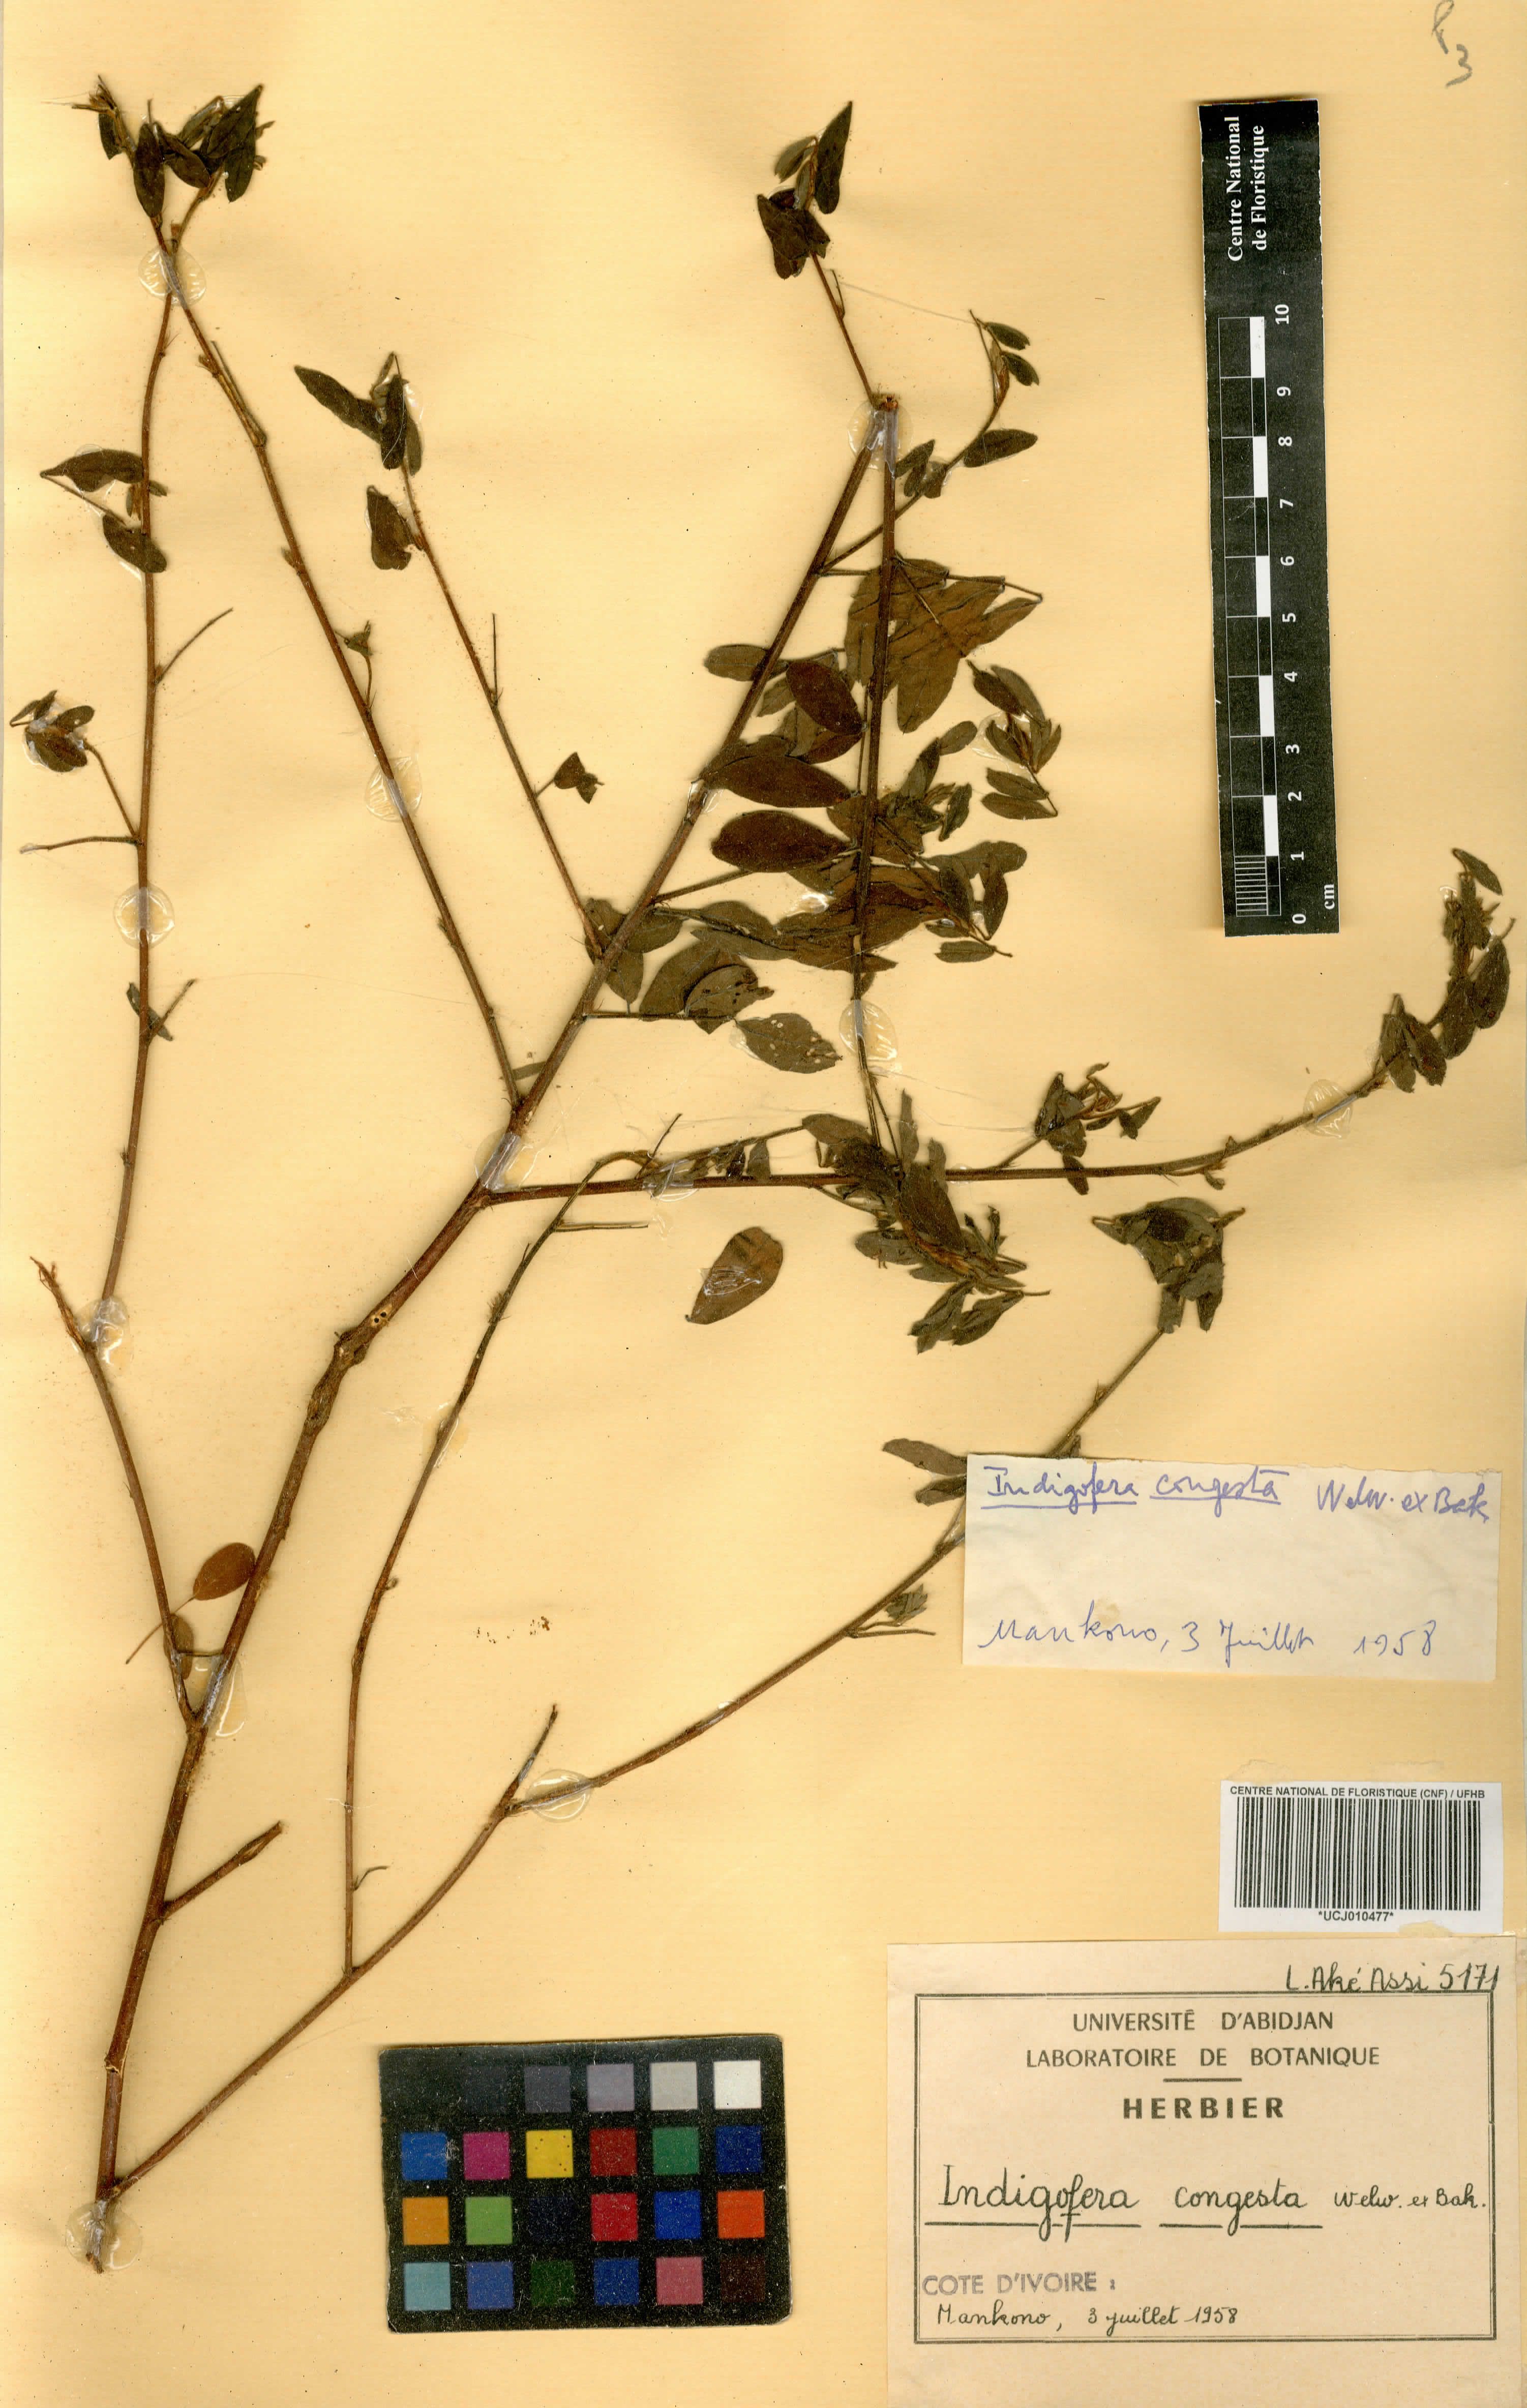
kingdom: Plantae
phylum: Tracheophyta
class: Magnoliopsida
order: Fabales
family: Fabaceae
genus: Indigofera
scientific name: Indigofera congesta
